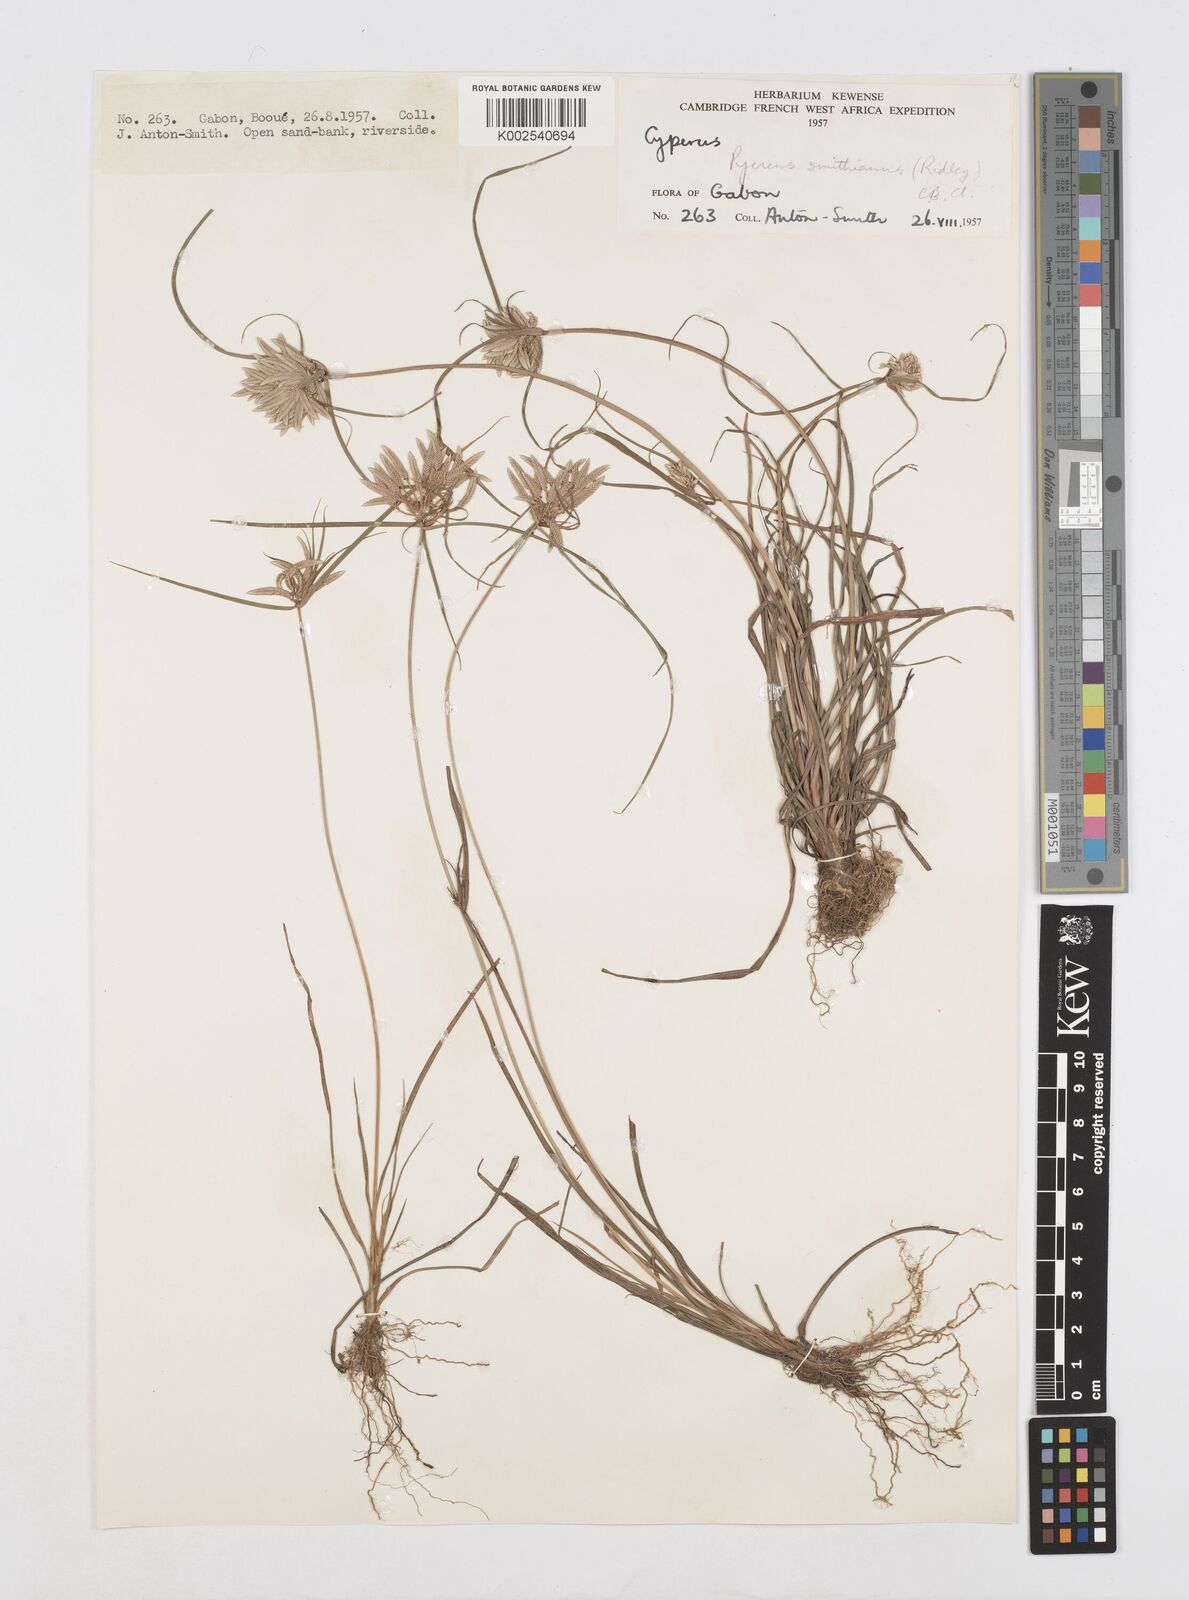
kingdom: Plantae
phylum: Tracheophyta
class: Liliopsida
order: Poales
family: Cyperaceae
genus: Cyperus
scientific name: Cyperus smithianus
